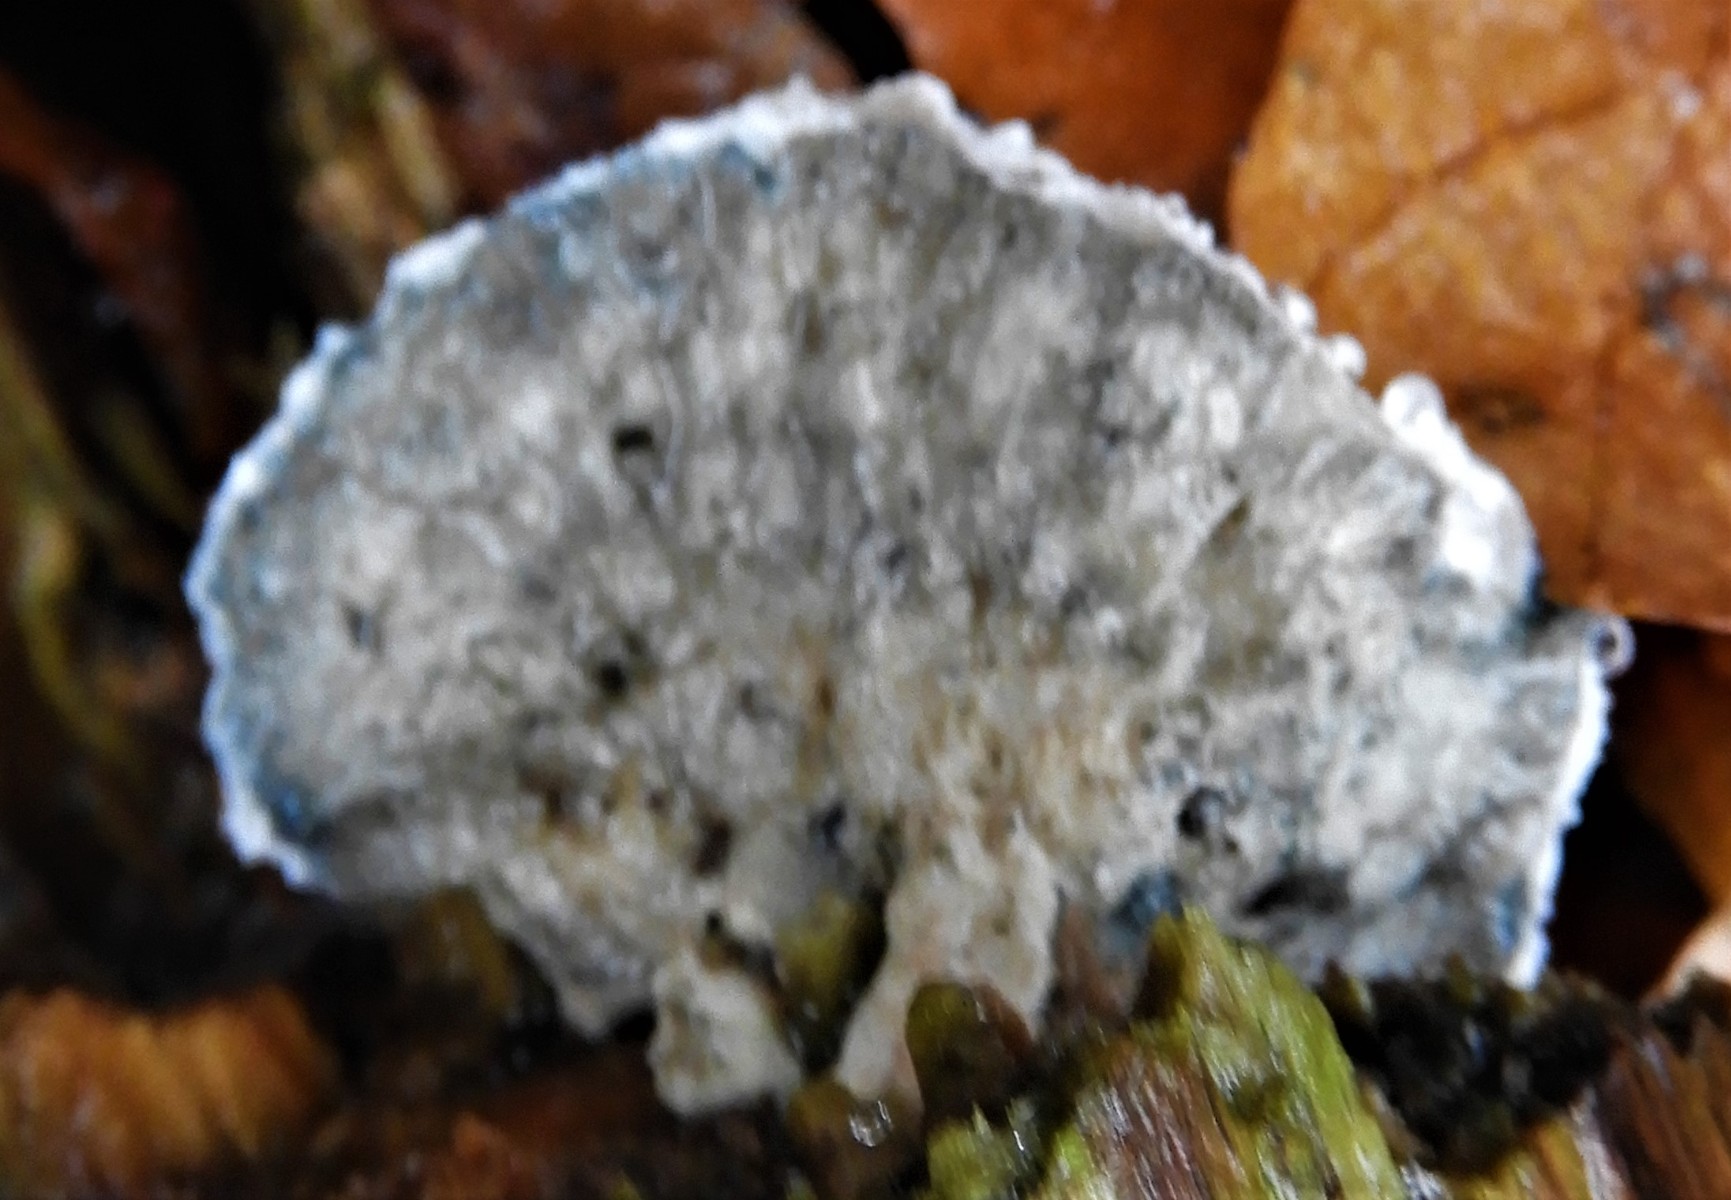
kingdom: Fungi
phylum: Basidiomycota
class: Agaricomycetes
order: Polyporales
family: Polyporaceae
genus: Cyanosporus
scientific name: Cyanosporus caesius
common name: blålig kødporesvamp
